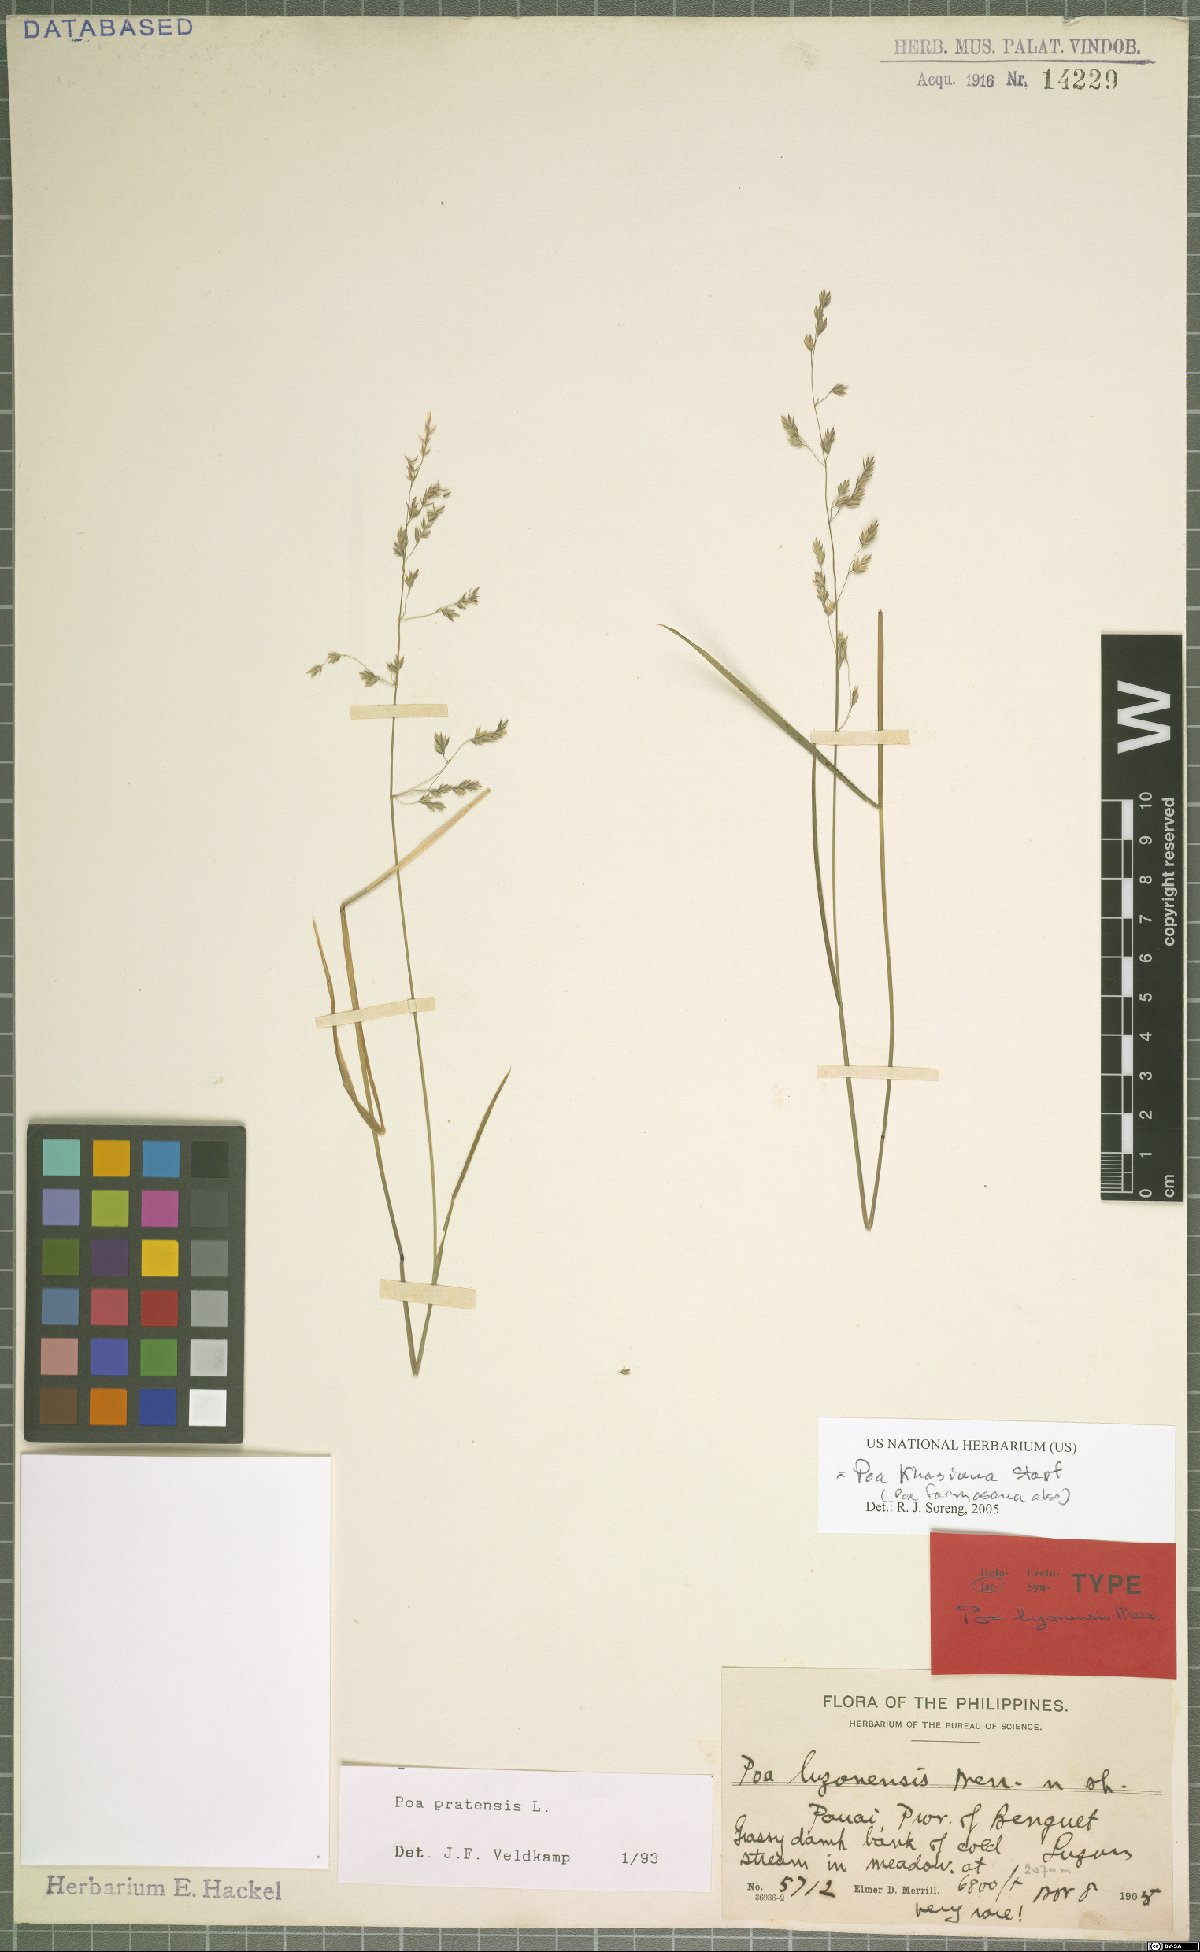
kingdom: Plantae
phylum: Tracheophyta
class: Liliopsida
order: Poales
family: Poaceae
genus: Poa
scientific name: Poa khasiana
